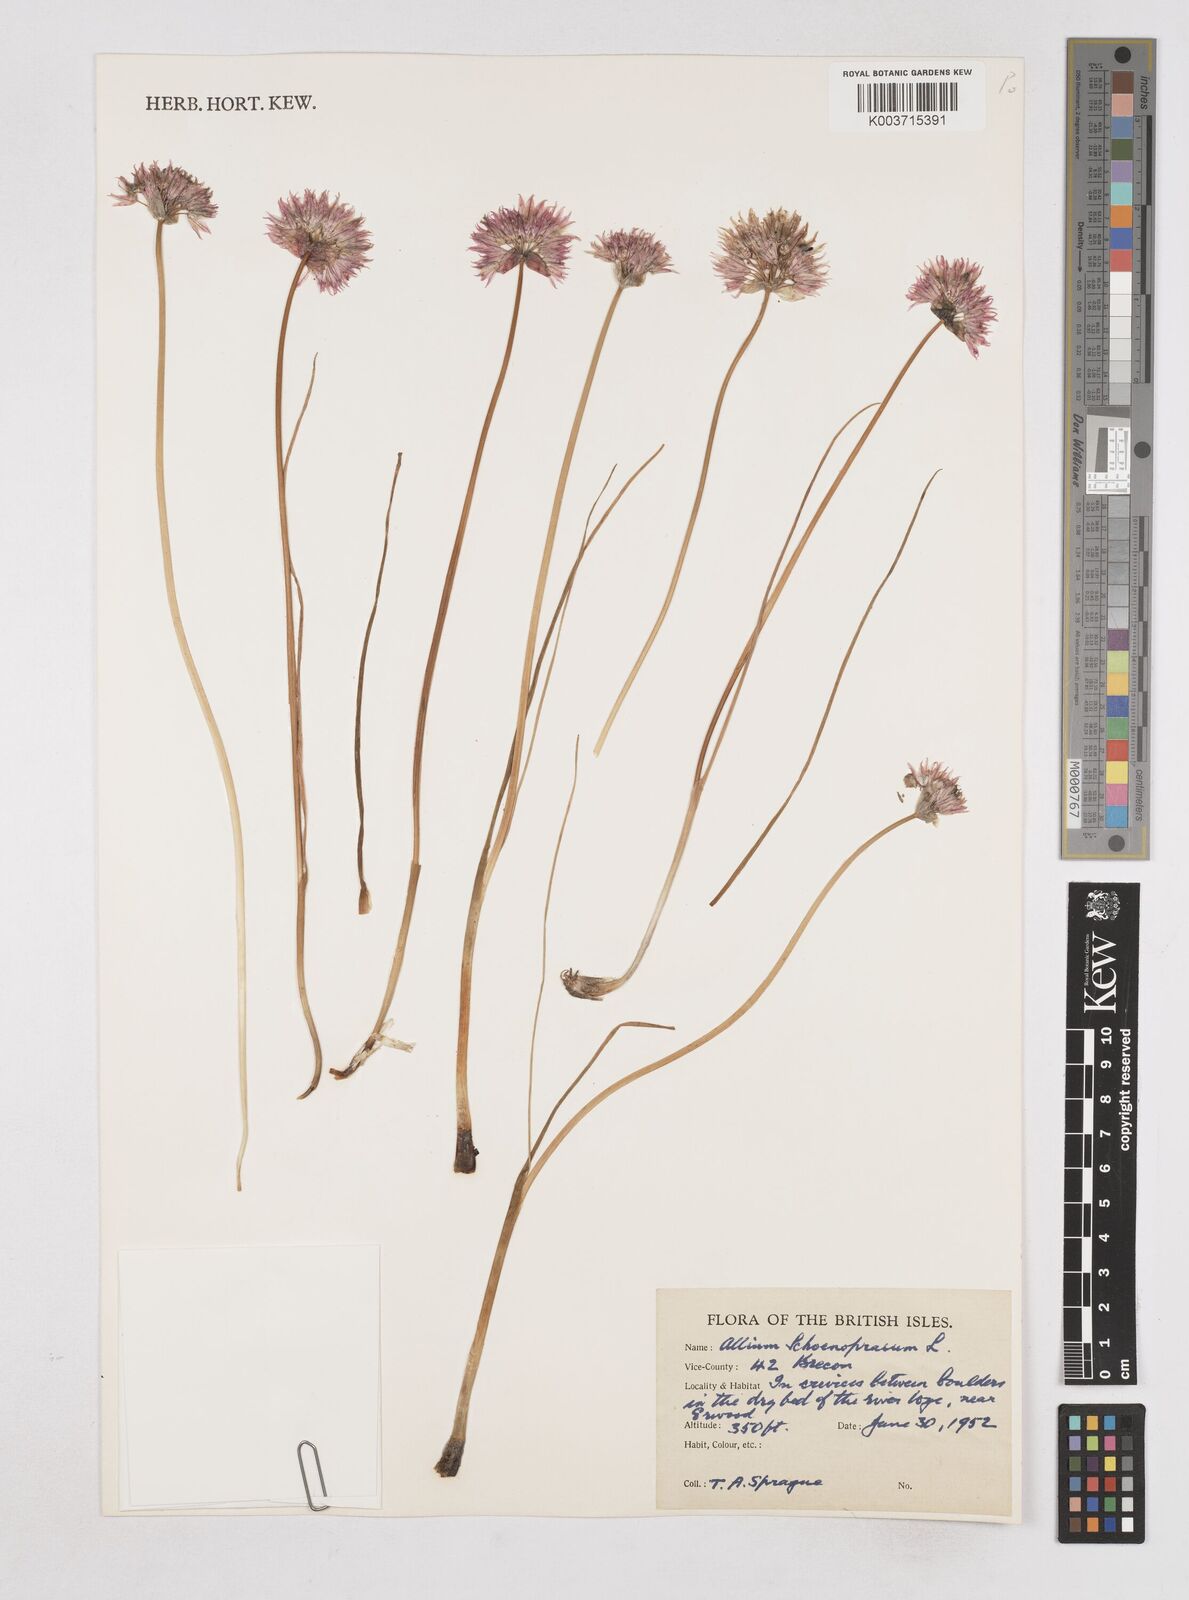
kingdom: Plantae
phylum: Tracheophyta
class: Liliopsida
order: Asparagales
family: Amaryllidaceae
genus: Allium
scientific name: Allium schoenoprasum
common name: Chives
